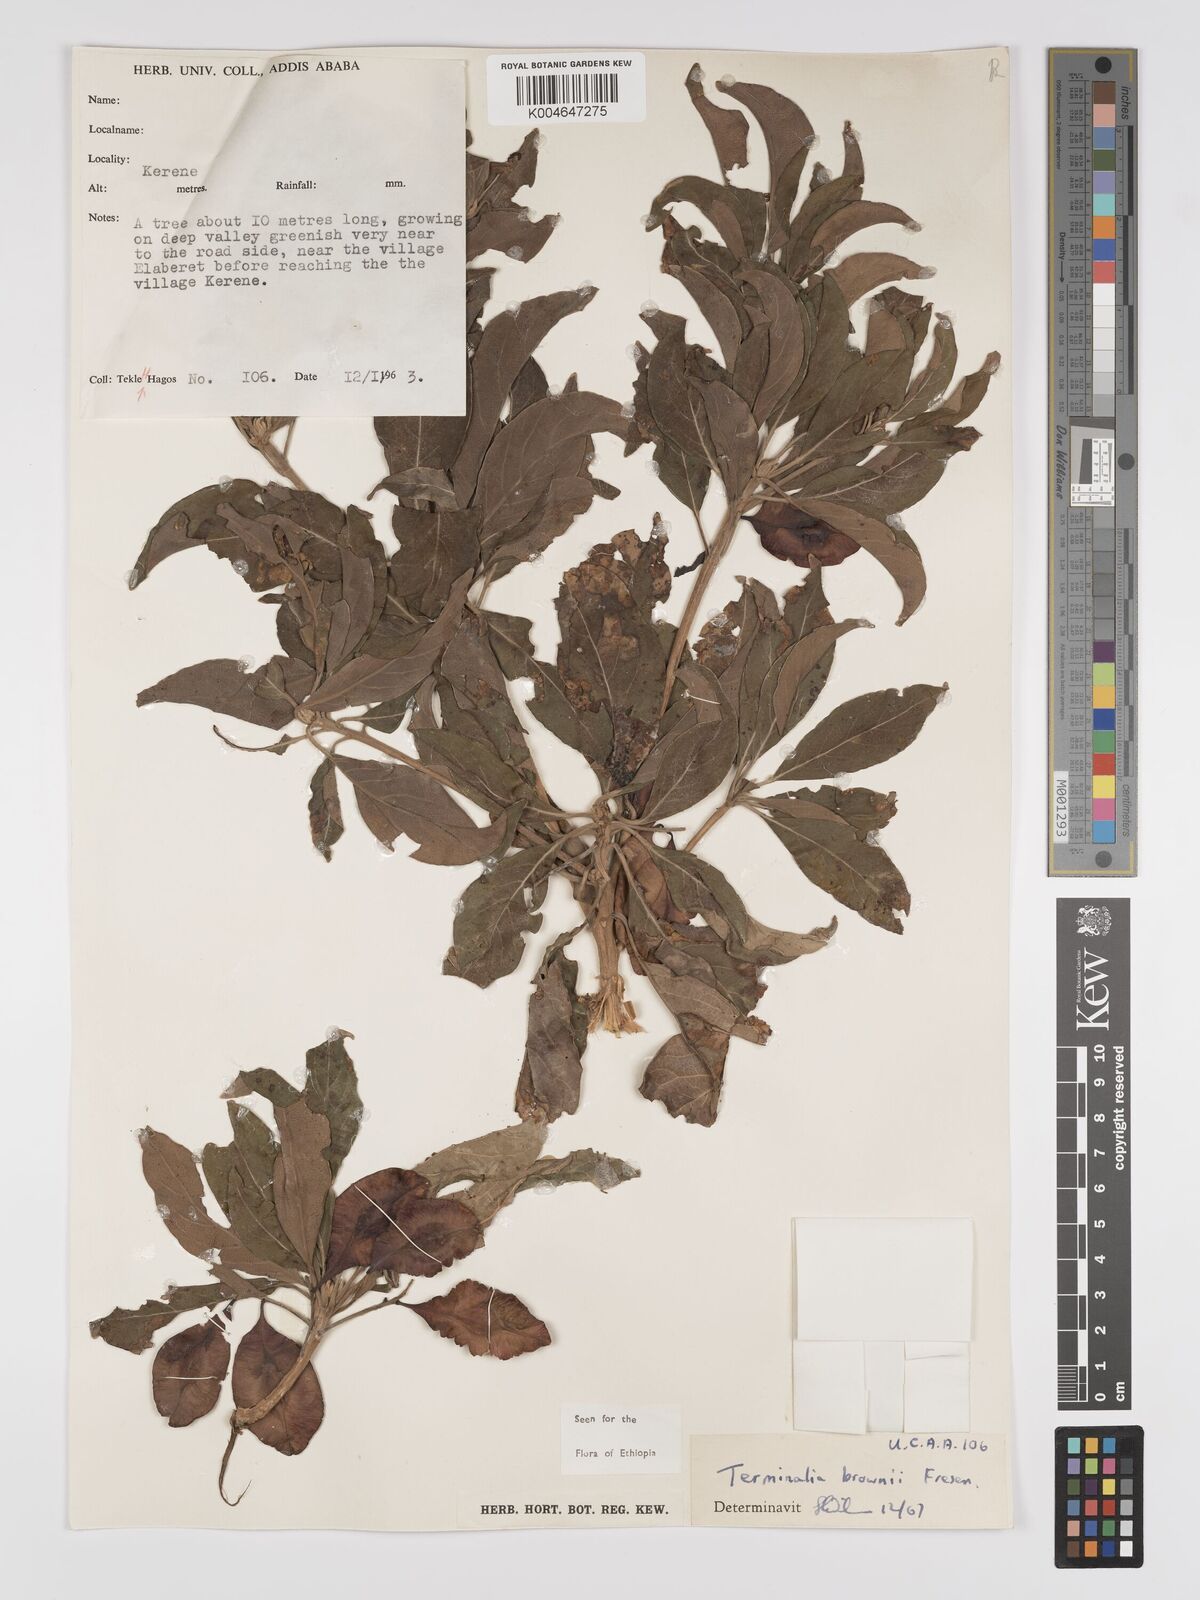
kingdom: Plantae
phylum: Tracheophyta
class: Magnoliopsida
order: Myrtales
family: Combretaceae
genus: Terminalia
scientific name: Terminalia brownii
